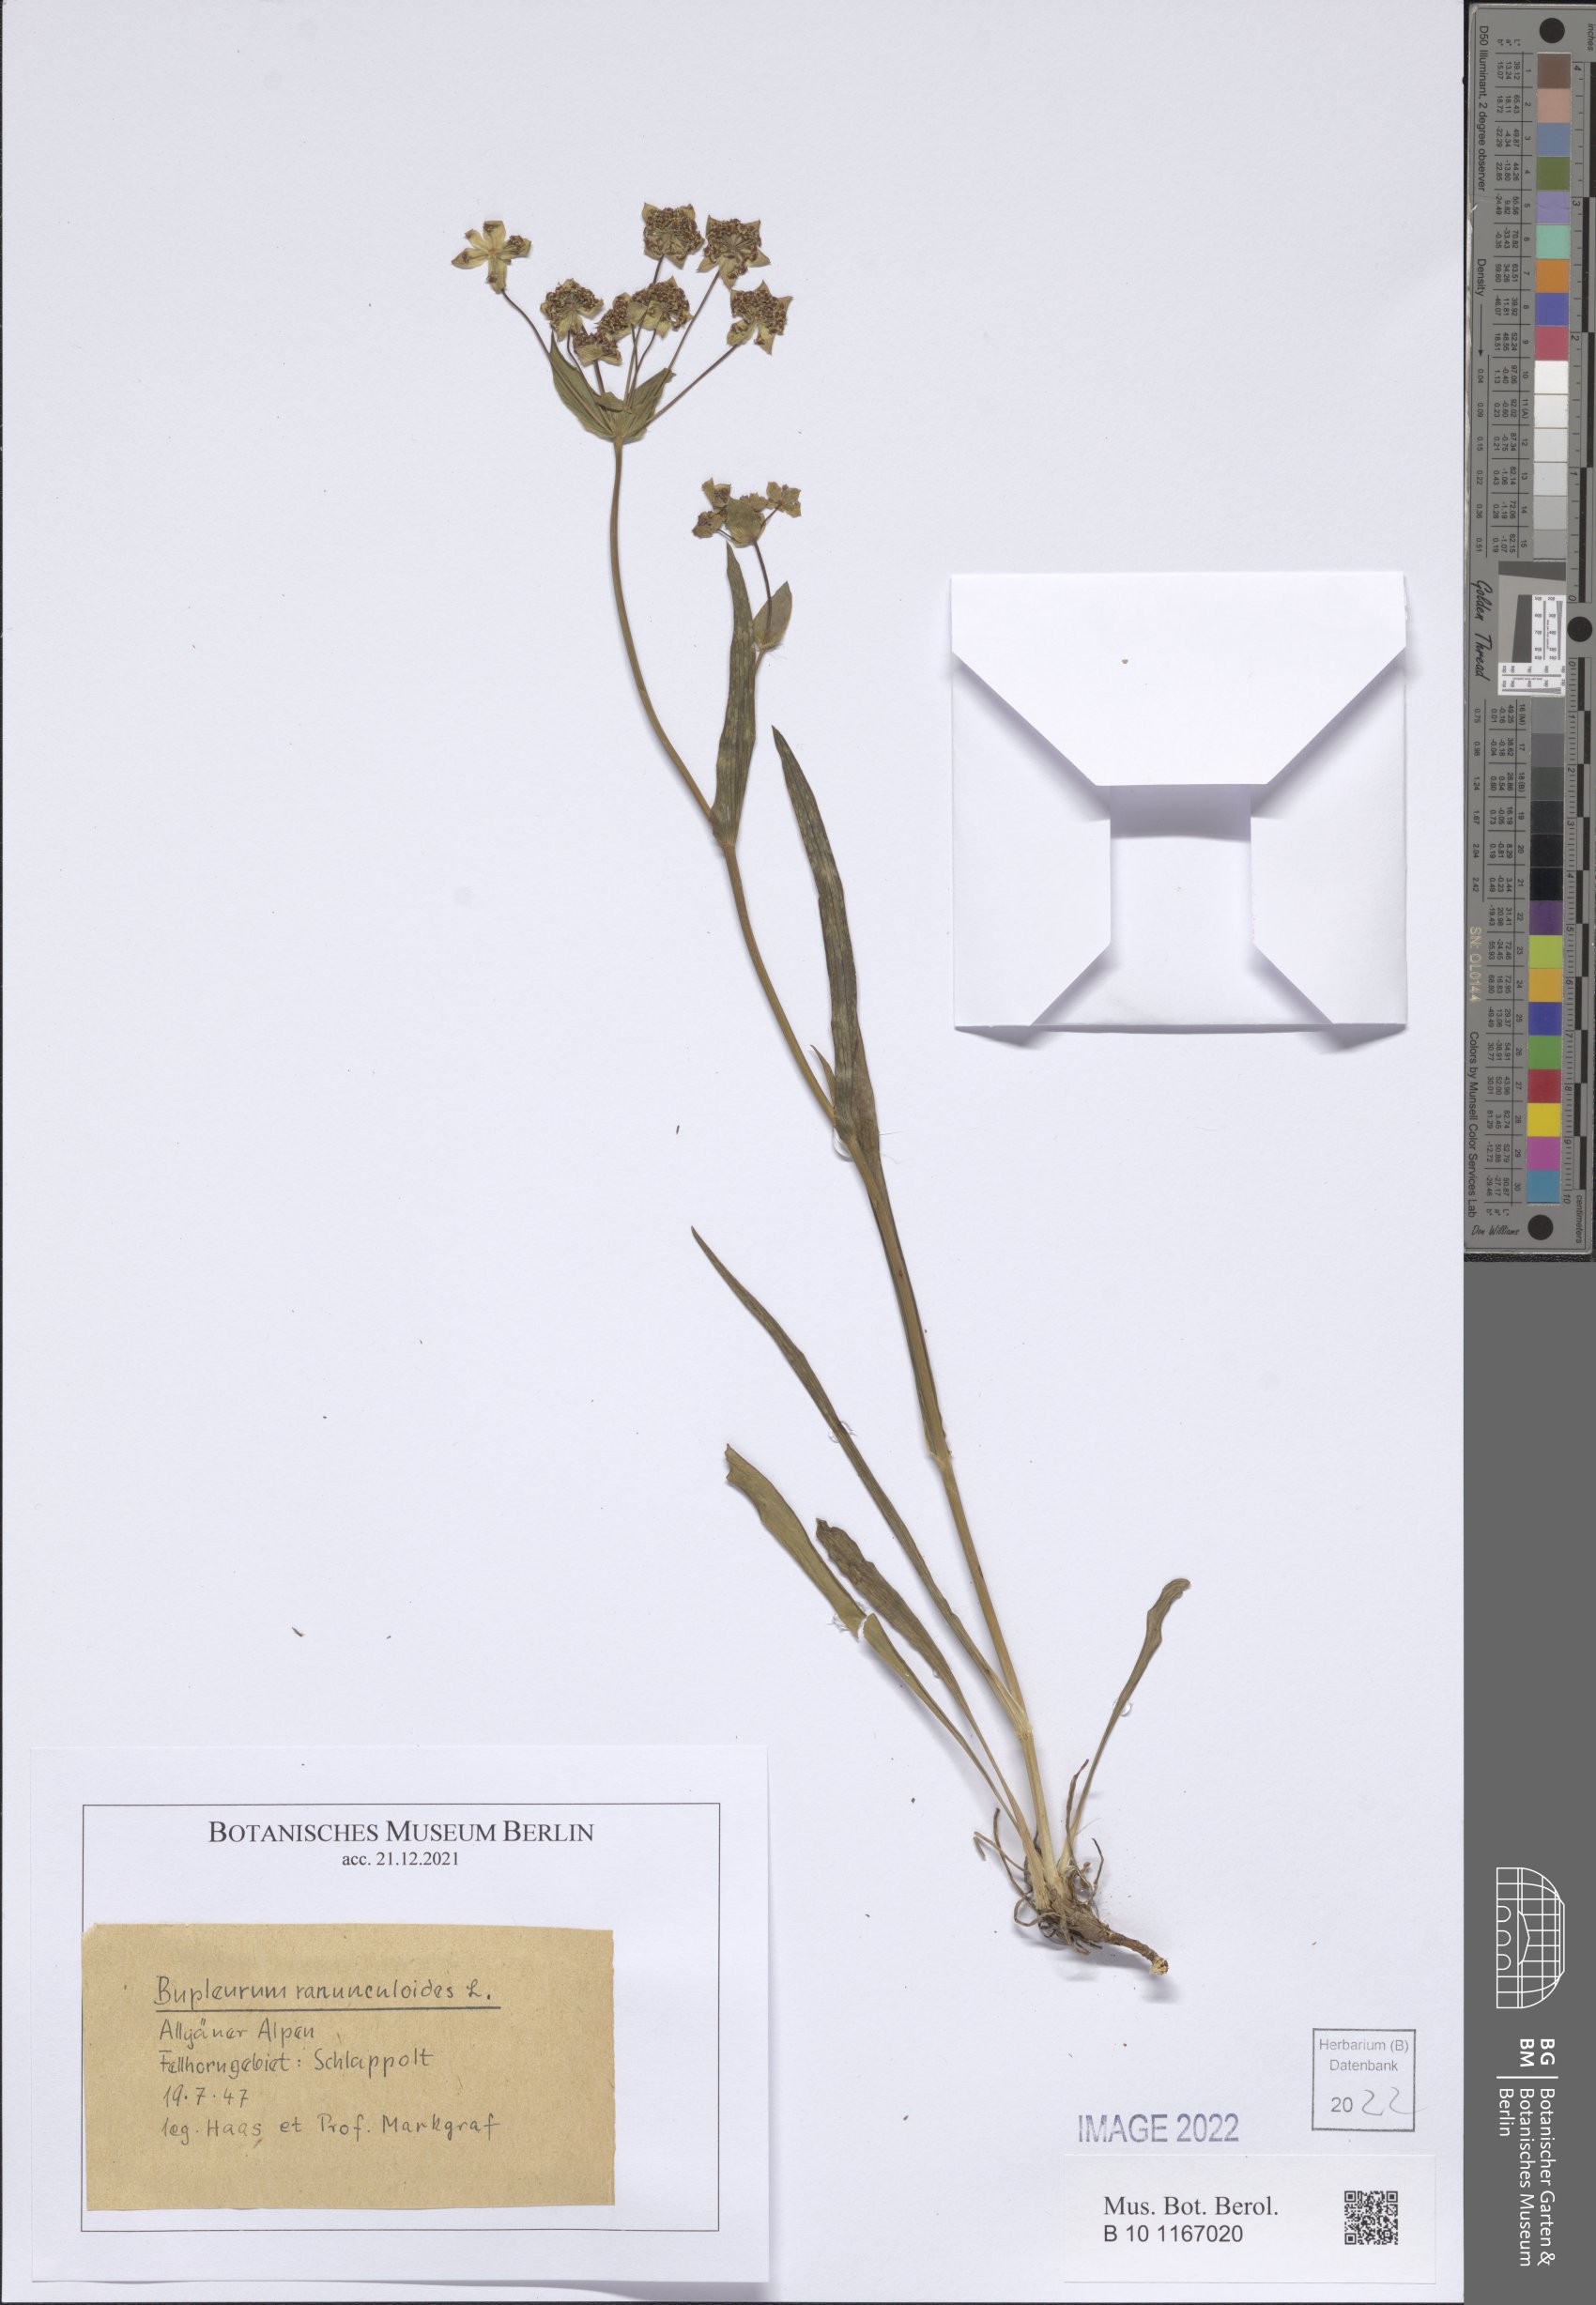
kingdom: Plantae
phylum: Tracheophyta
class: Magnoliopsida
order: Apiales
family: Apiaceae
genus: Bupleurum
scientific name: Bupleurum ranunculoides
